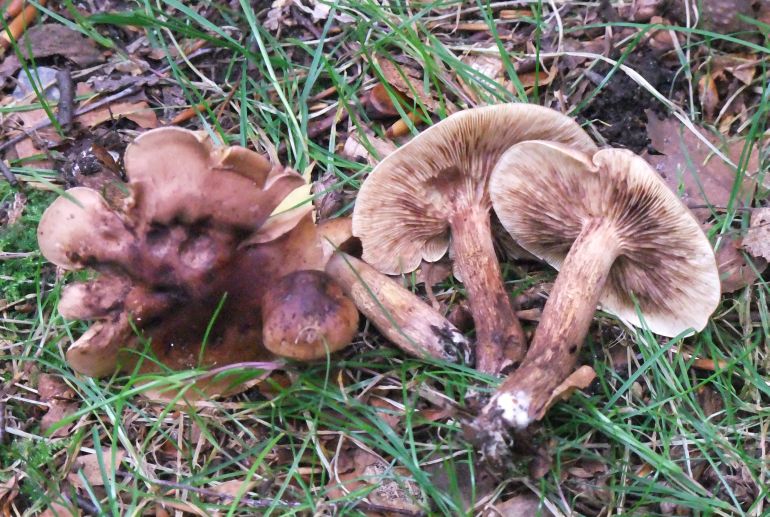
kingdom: Fungi
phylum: Basidiomycota
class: Agaricomycetes
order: Agaricales
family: Tricholomataceae
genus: Tricholoma
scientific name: Tricholoma fulvum
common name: birke-ridderhat
